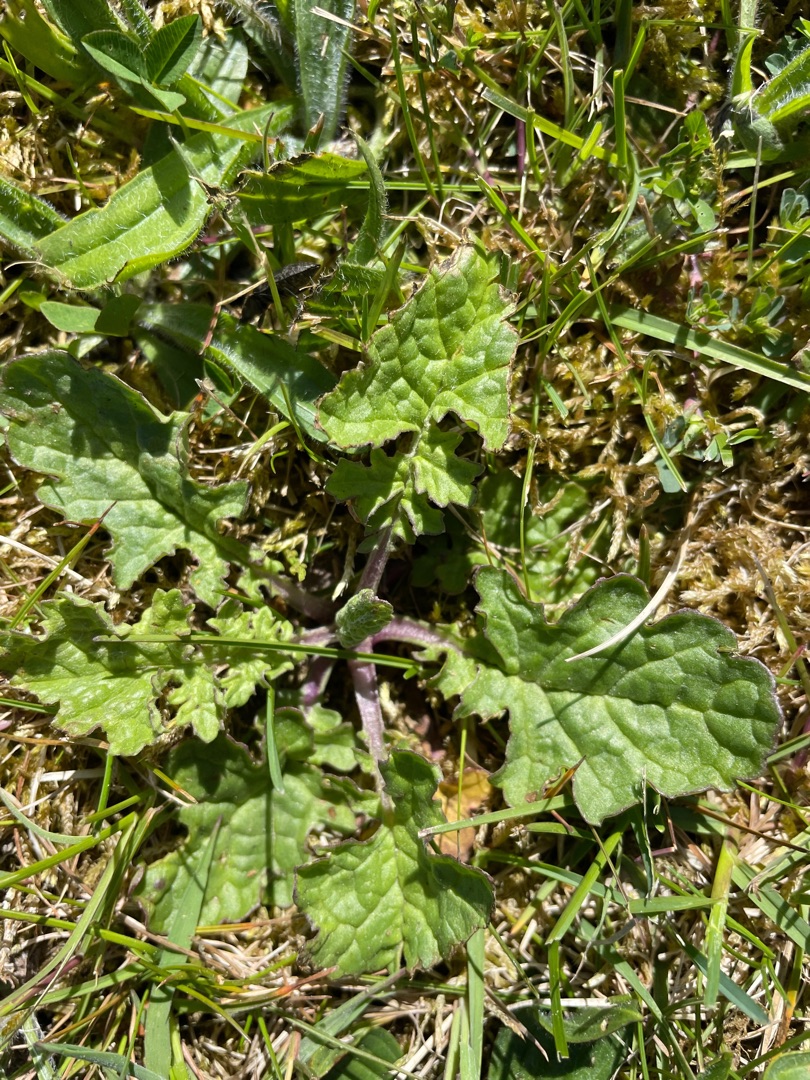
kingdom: Plantae
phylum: Tracheophyta
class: Magnoliopsida
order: Asterales
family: Asteraceae
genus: Jacobaea
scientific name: Jacobaea vulgaris
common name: Eng-brandbæger
